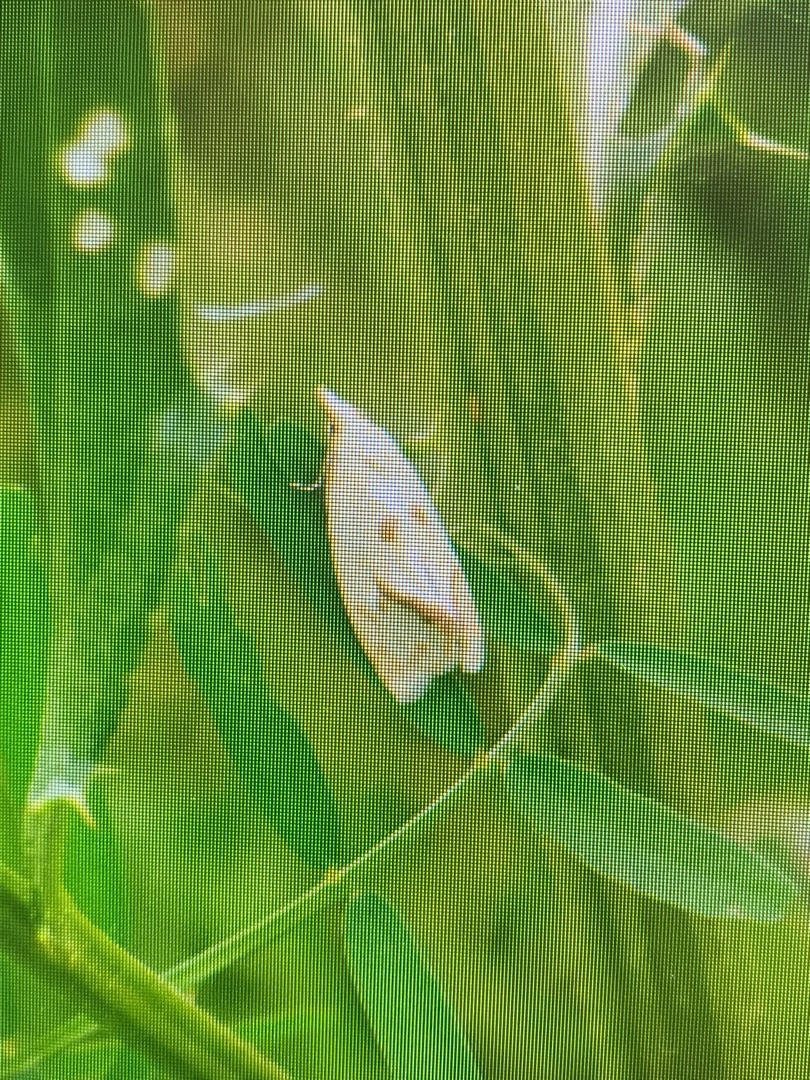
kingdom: Animalia
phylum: Arthropoda
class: Insecta
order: Lepidoptera
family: Tortricidae
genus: Agapeta
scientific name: Agapeta hamana
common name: Tidselgulvikler
